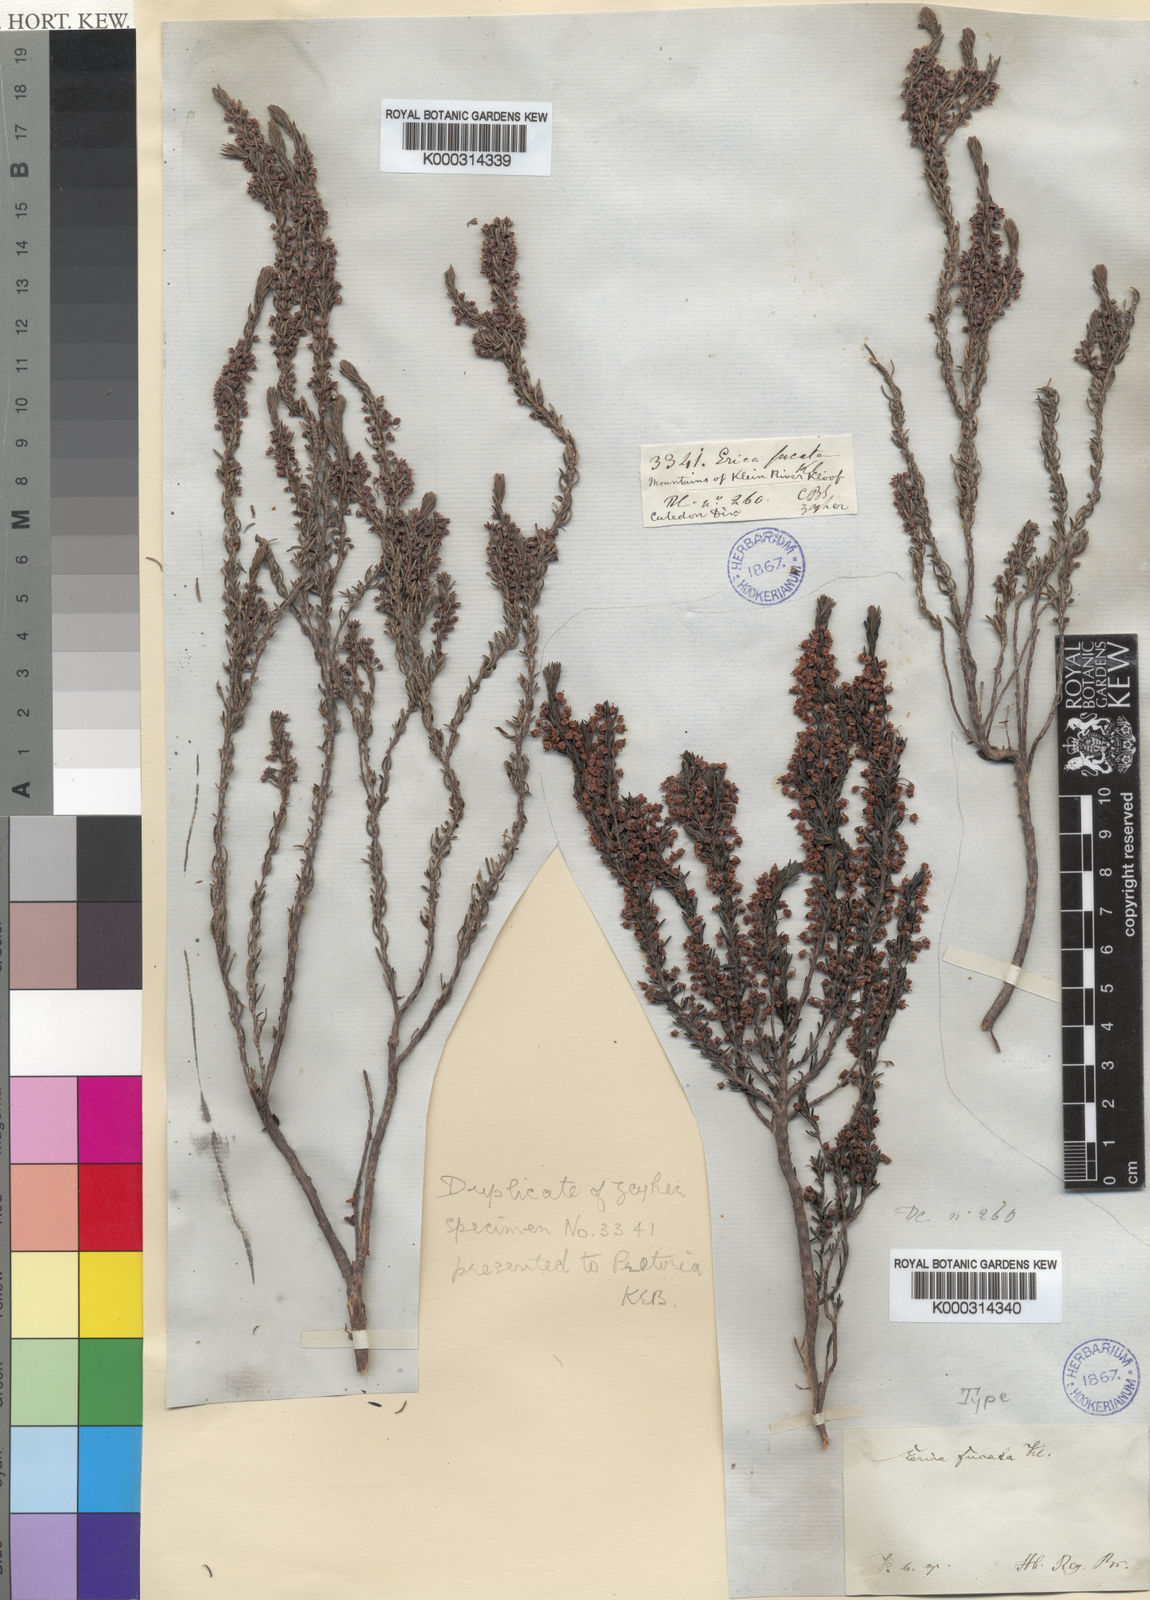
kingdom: Plantae
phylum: Tracheophyta
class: Magnoliopsida
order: Ericales
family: Ericaceae
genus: Erica
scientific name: Erica rubiginosa
